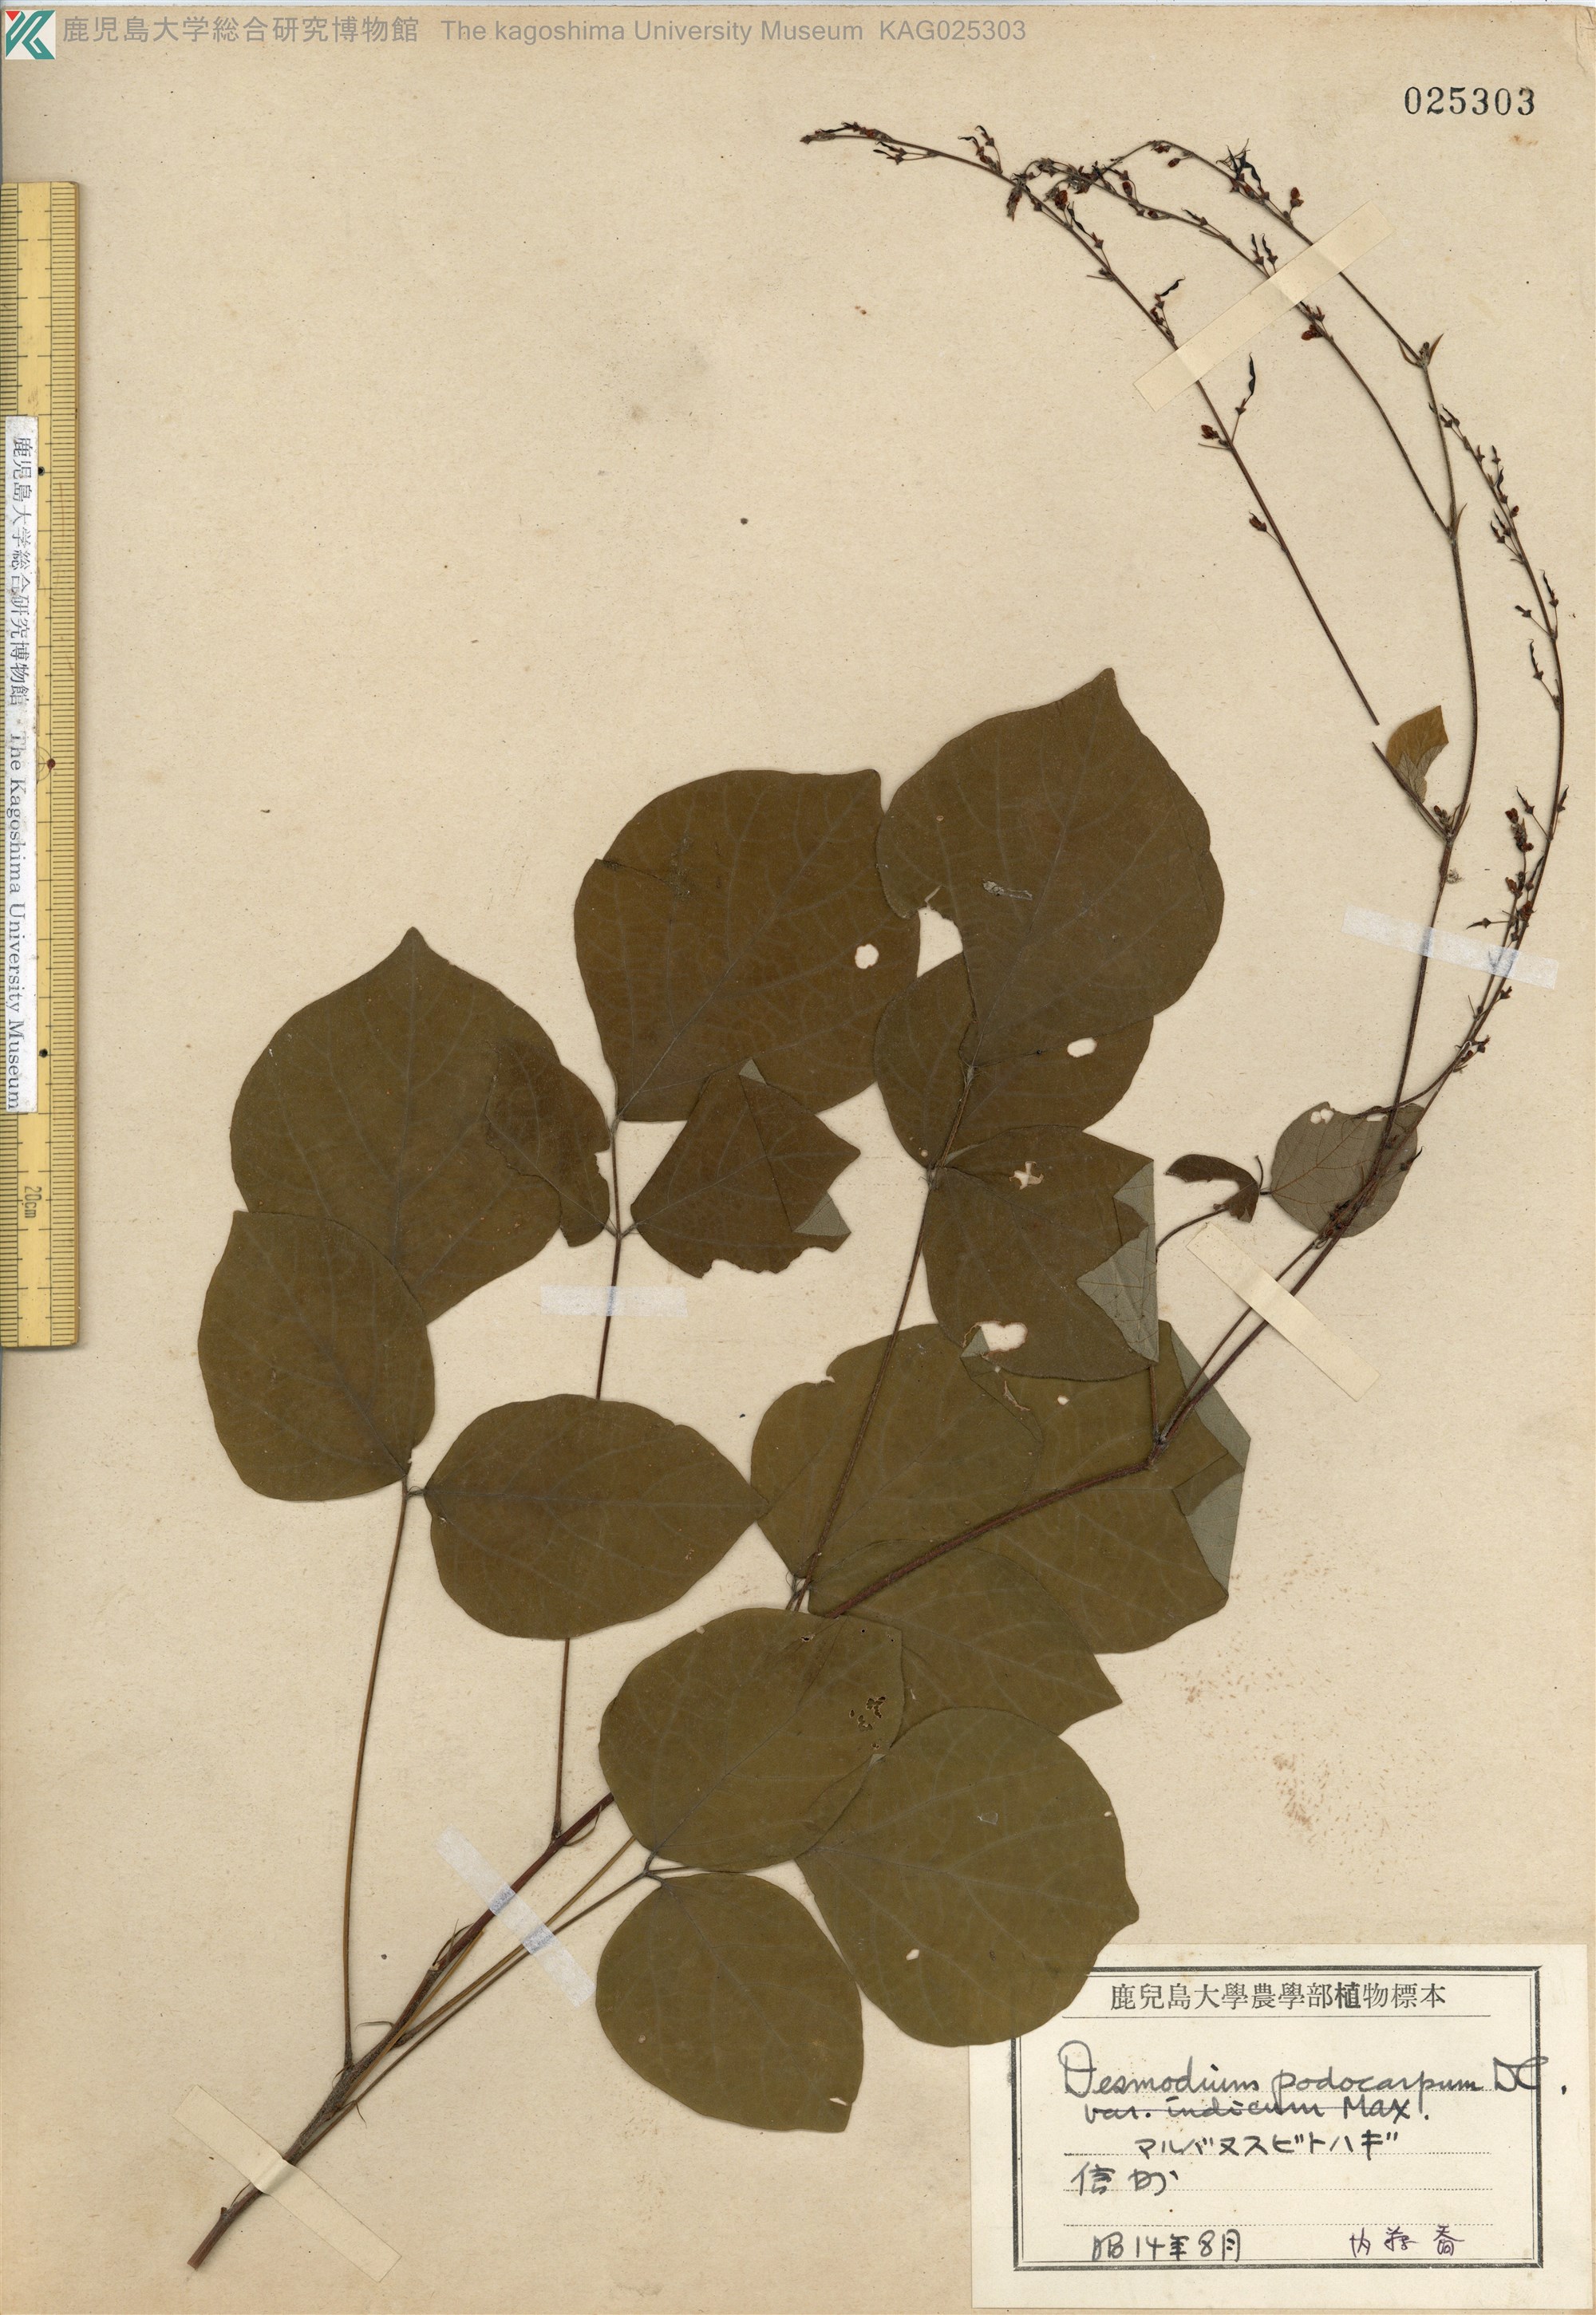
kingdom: Plantae
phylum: Tracheophyta
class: Magnoliopsida
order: Fabales
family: Fabaceae
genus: Hylodesmum
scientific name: Hylodesmum podocarpum
